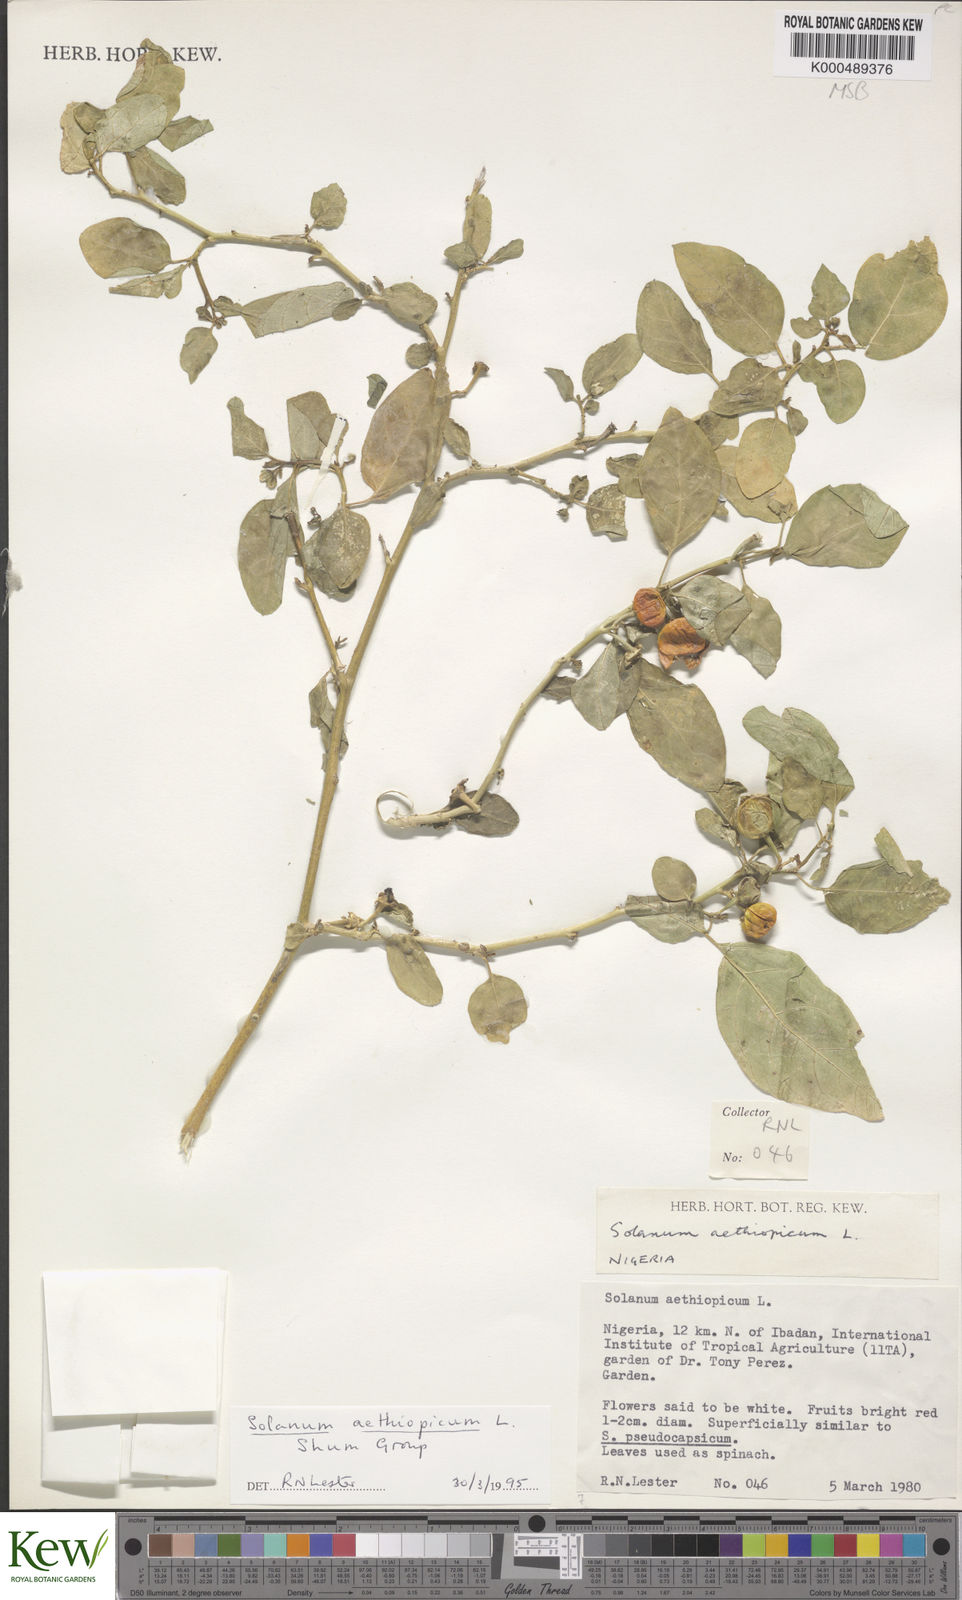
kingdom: Plantae
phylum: Tracheophyta
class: Magnoliopsida
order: Solanales
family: Solanaceae
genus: Solanum
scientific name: Solanum aethiopicum
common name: Gilo
